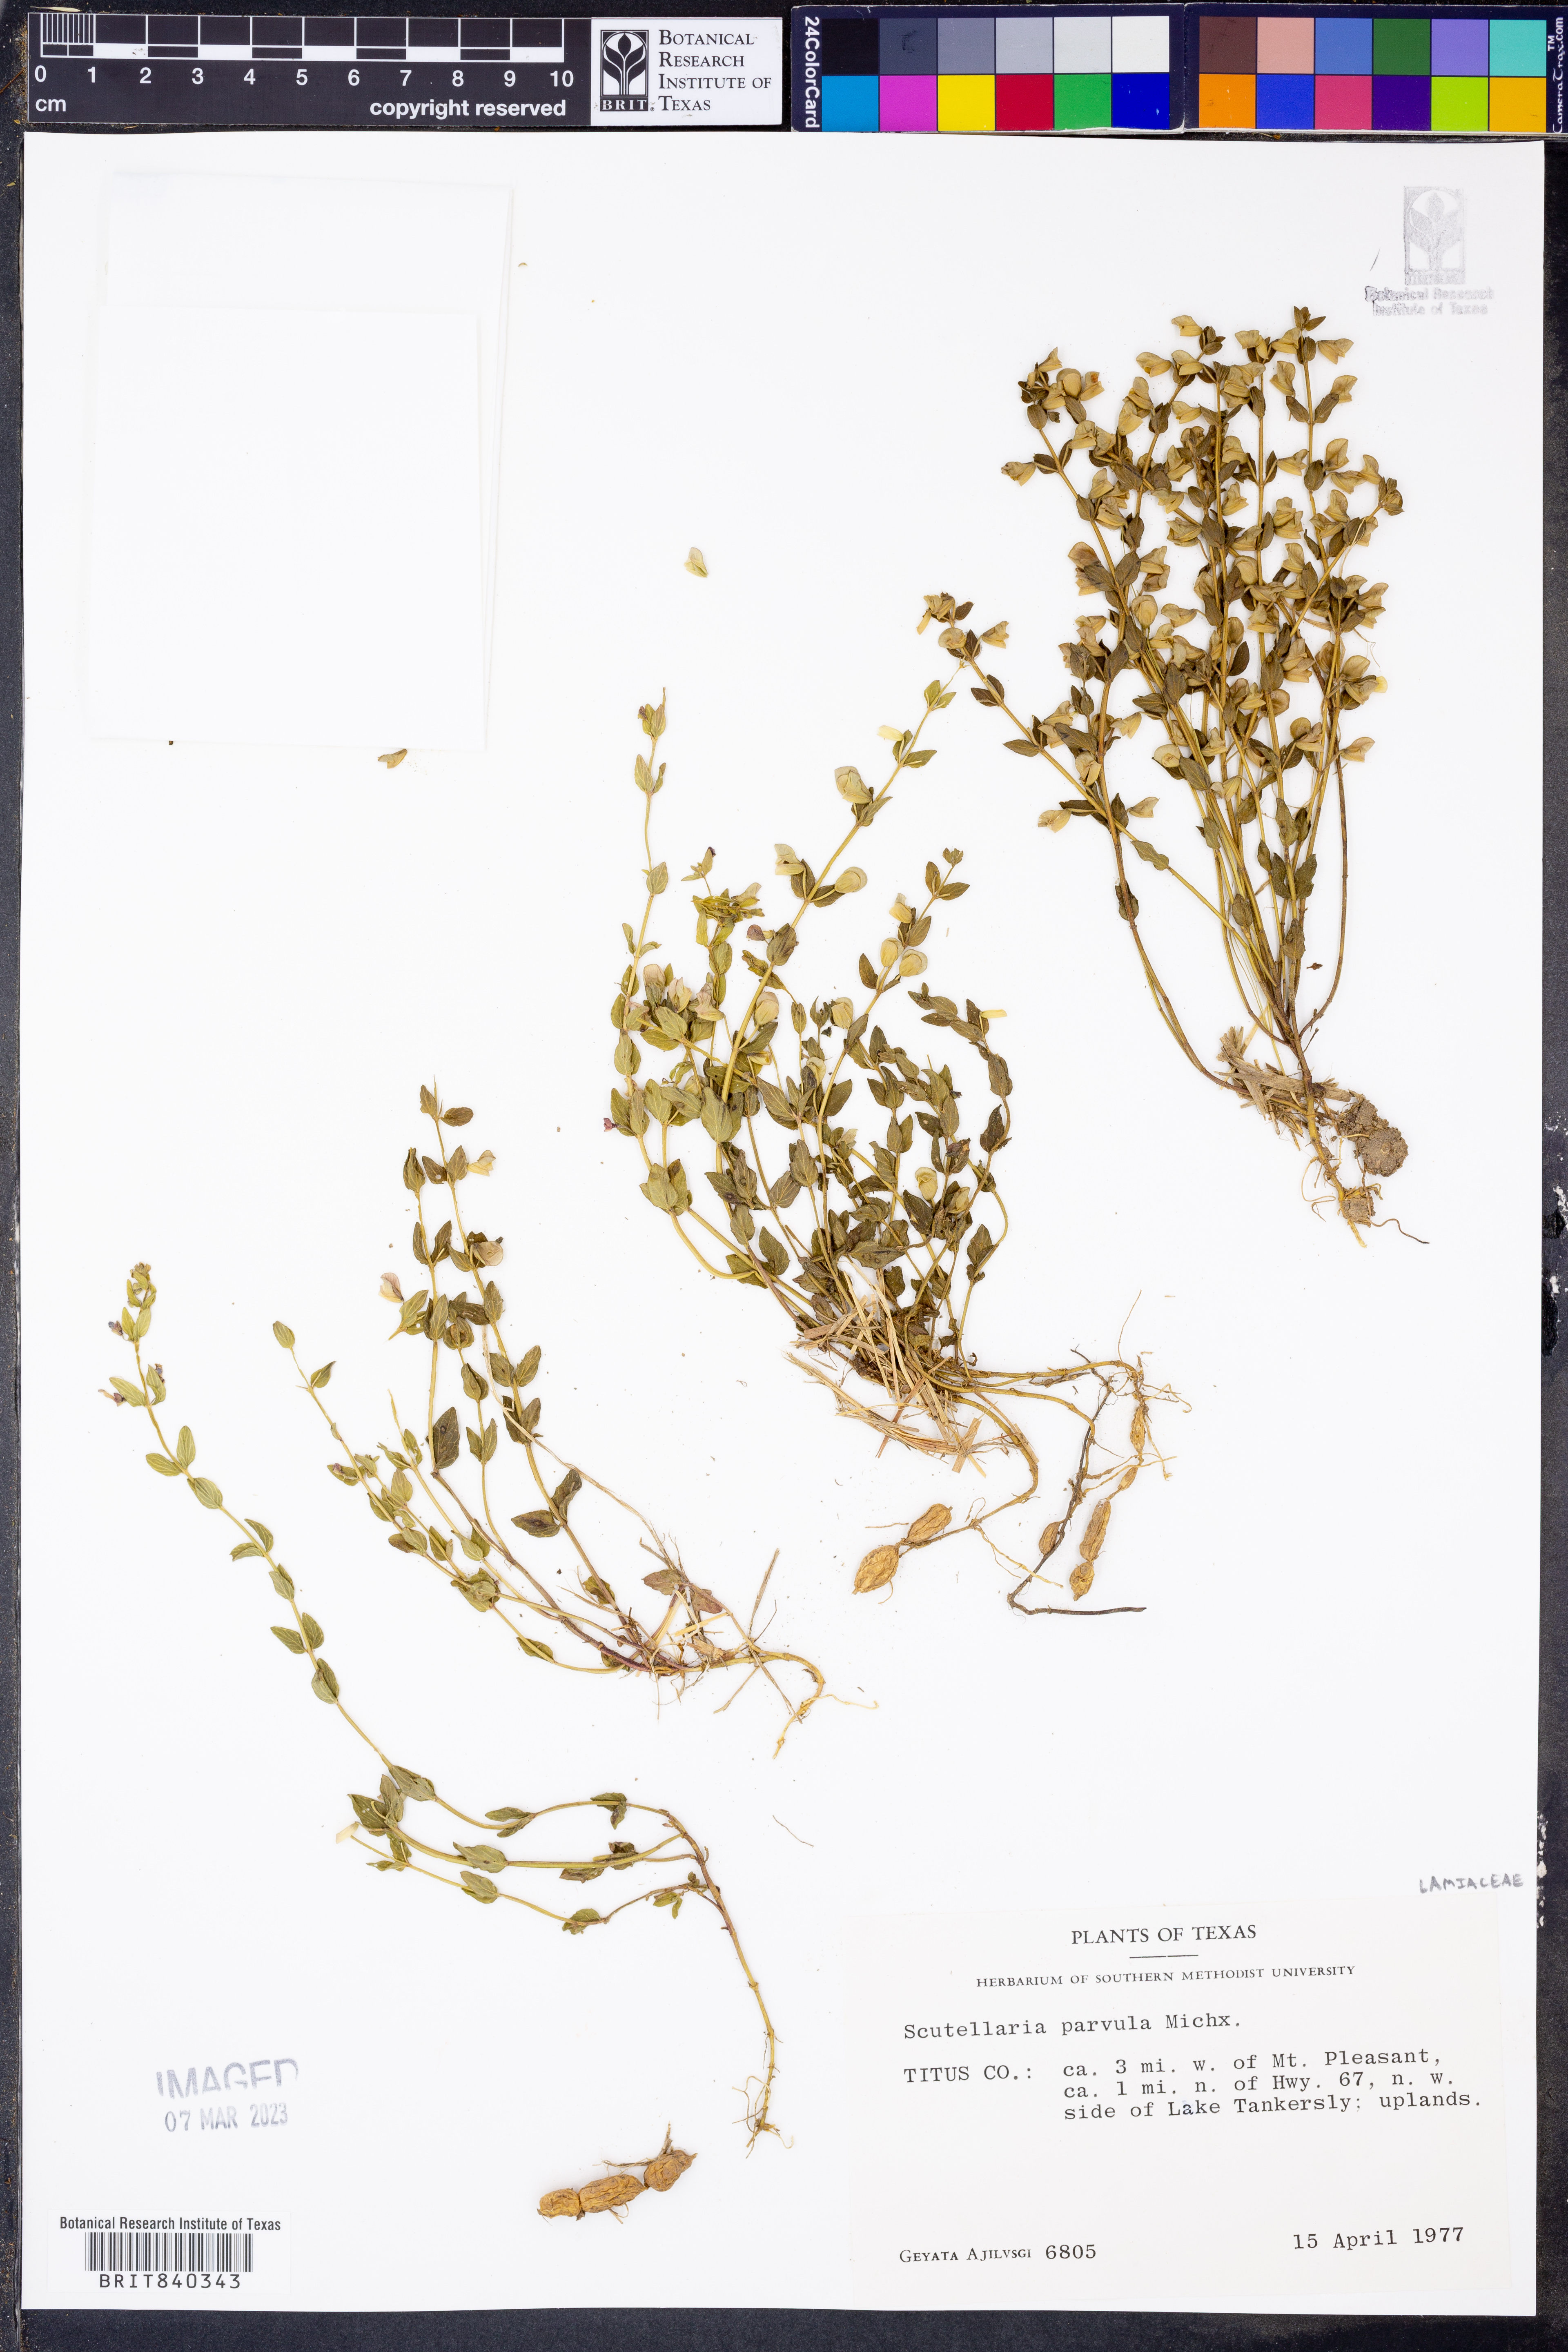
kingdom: Plantae
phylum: Tracheophyta
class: Magnoliopsida
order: Lamiales
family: Lamiaceae
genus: Scutellaria
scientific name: Scutellaria parvula
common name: Little scullcap
